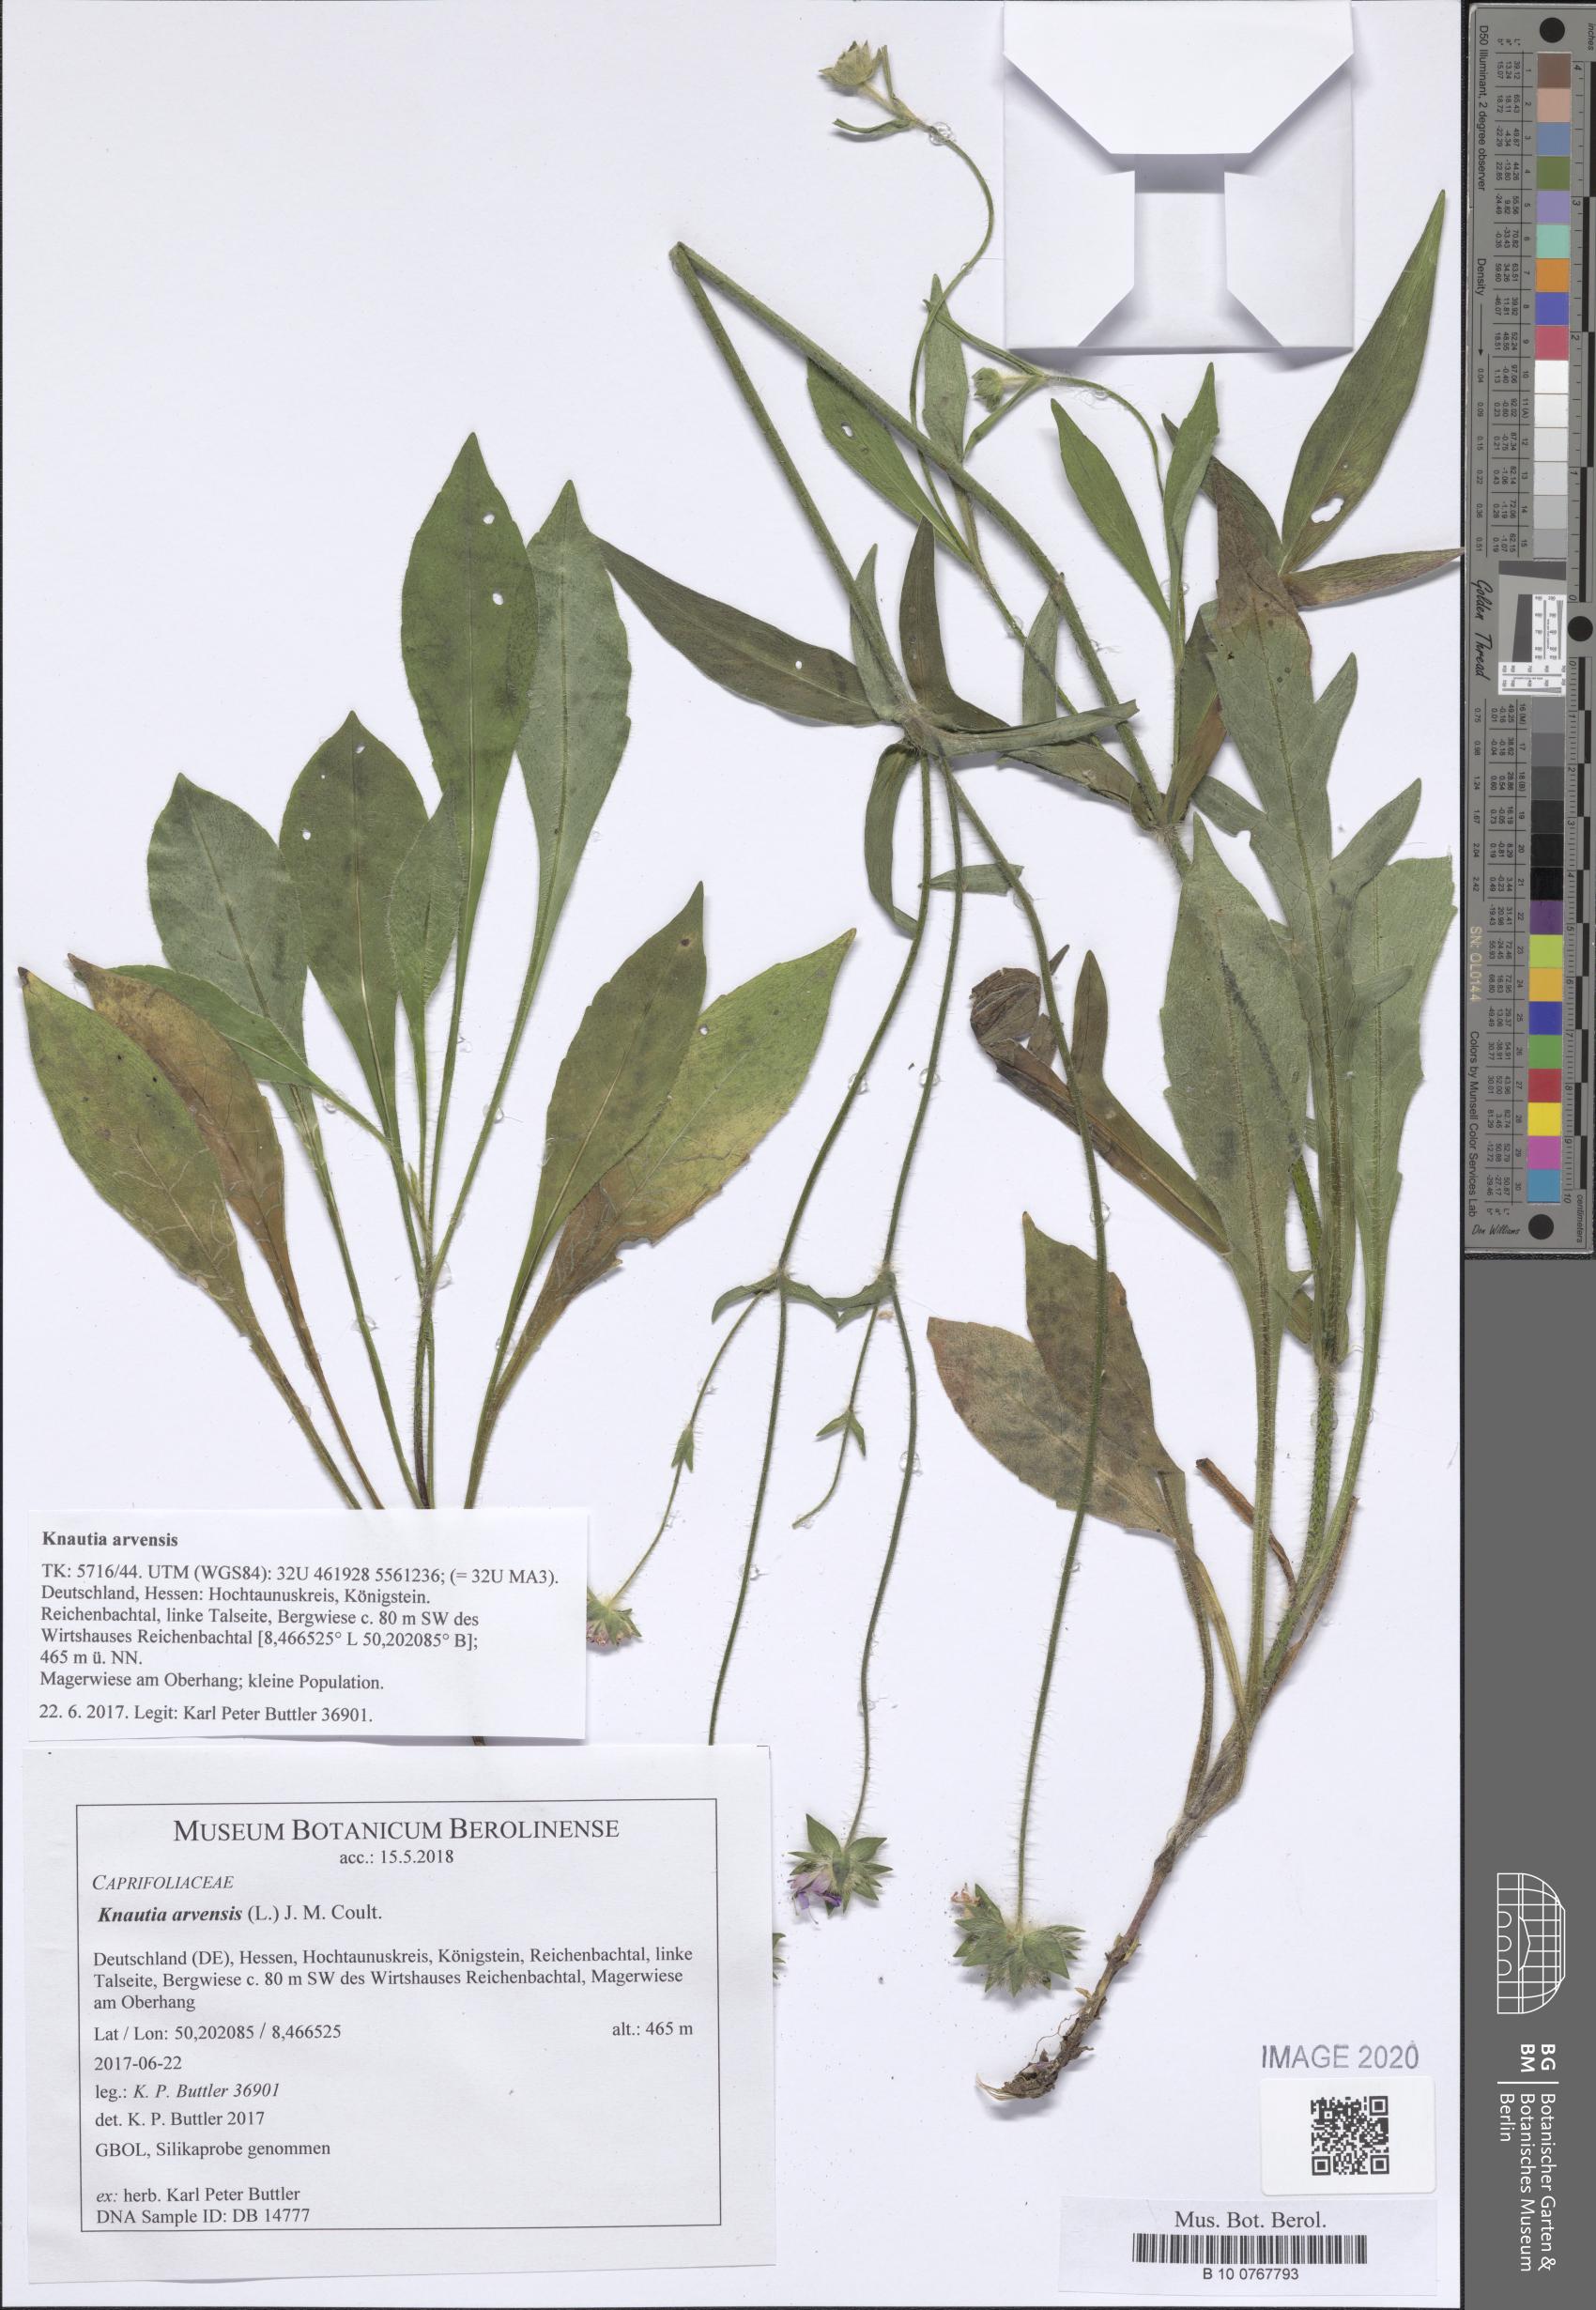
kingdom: Plantae
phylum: Tracheophyta
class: Magnoliopsida
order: Dipsacales
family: Caprifoliaceae
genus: Knautia
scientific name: Knautia arvensis
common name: Field scabiosa
